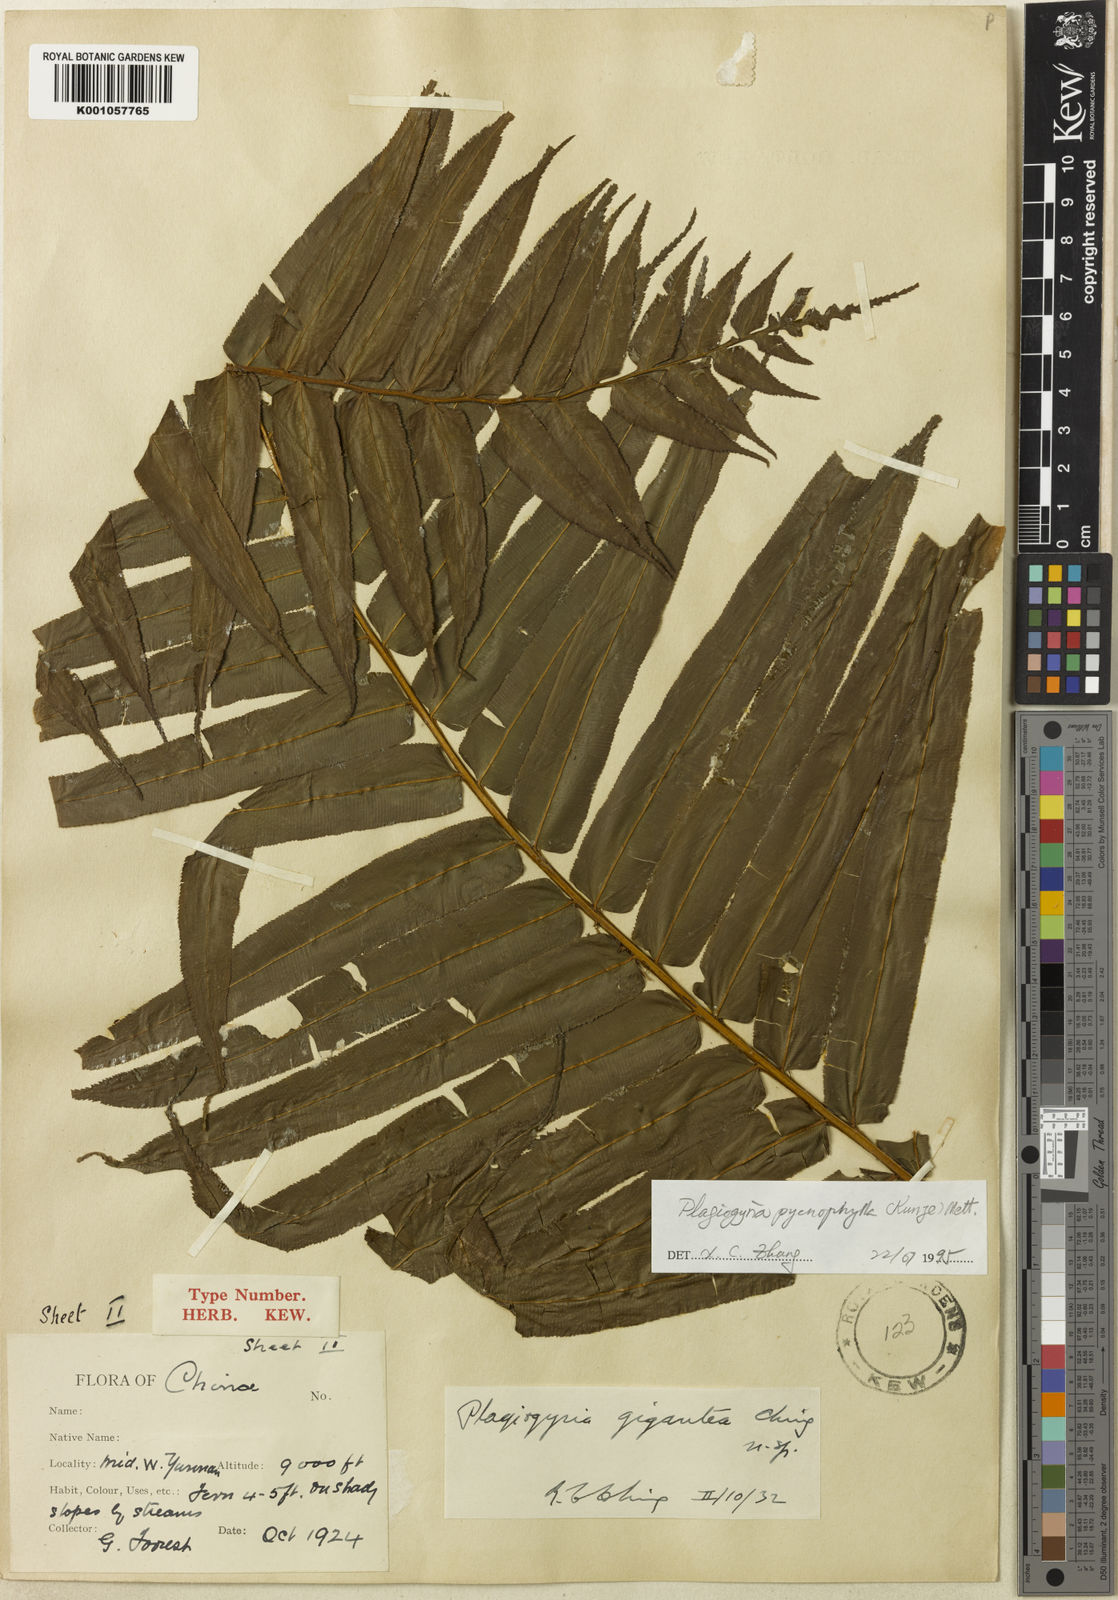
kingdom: Plantae
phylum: Tracheophyta
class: Polypodiopsida
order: Cyatheales
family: Plagiogyriaceae
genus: Plagiogyria
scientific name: Plagiogyria pycnophylla
